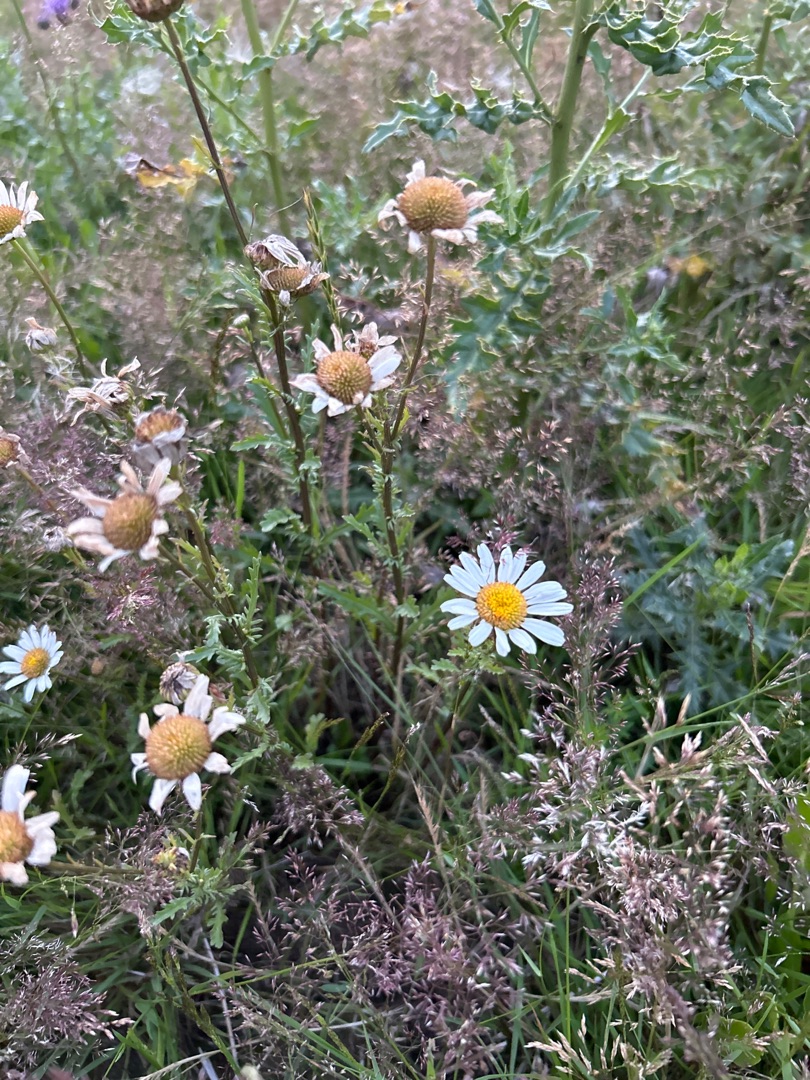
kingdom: Plantae
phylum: Tracheophyta
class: Magnoliopsida
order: Asterales
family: Asteraceae
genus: Leucanthemum
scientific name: Leucanthemum vulgare
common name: Hvid okseøje
